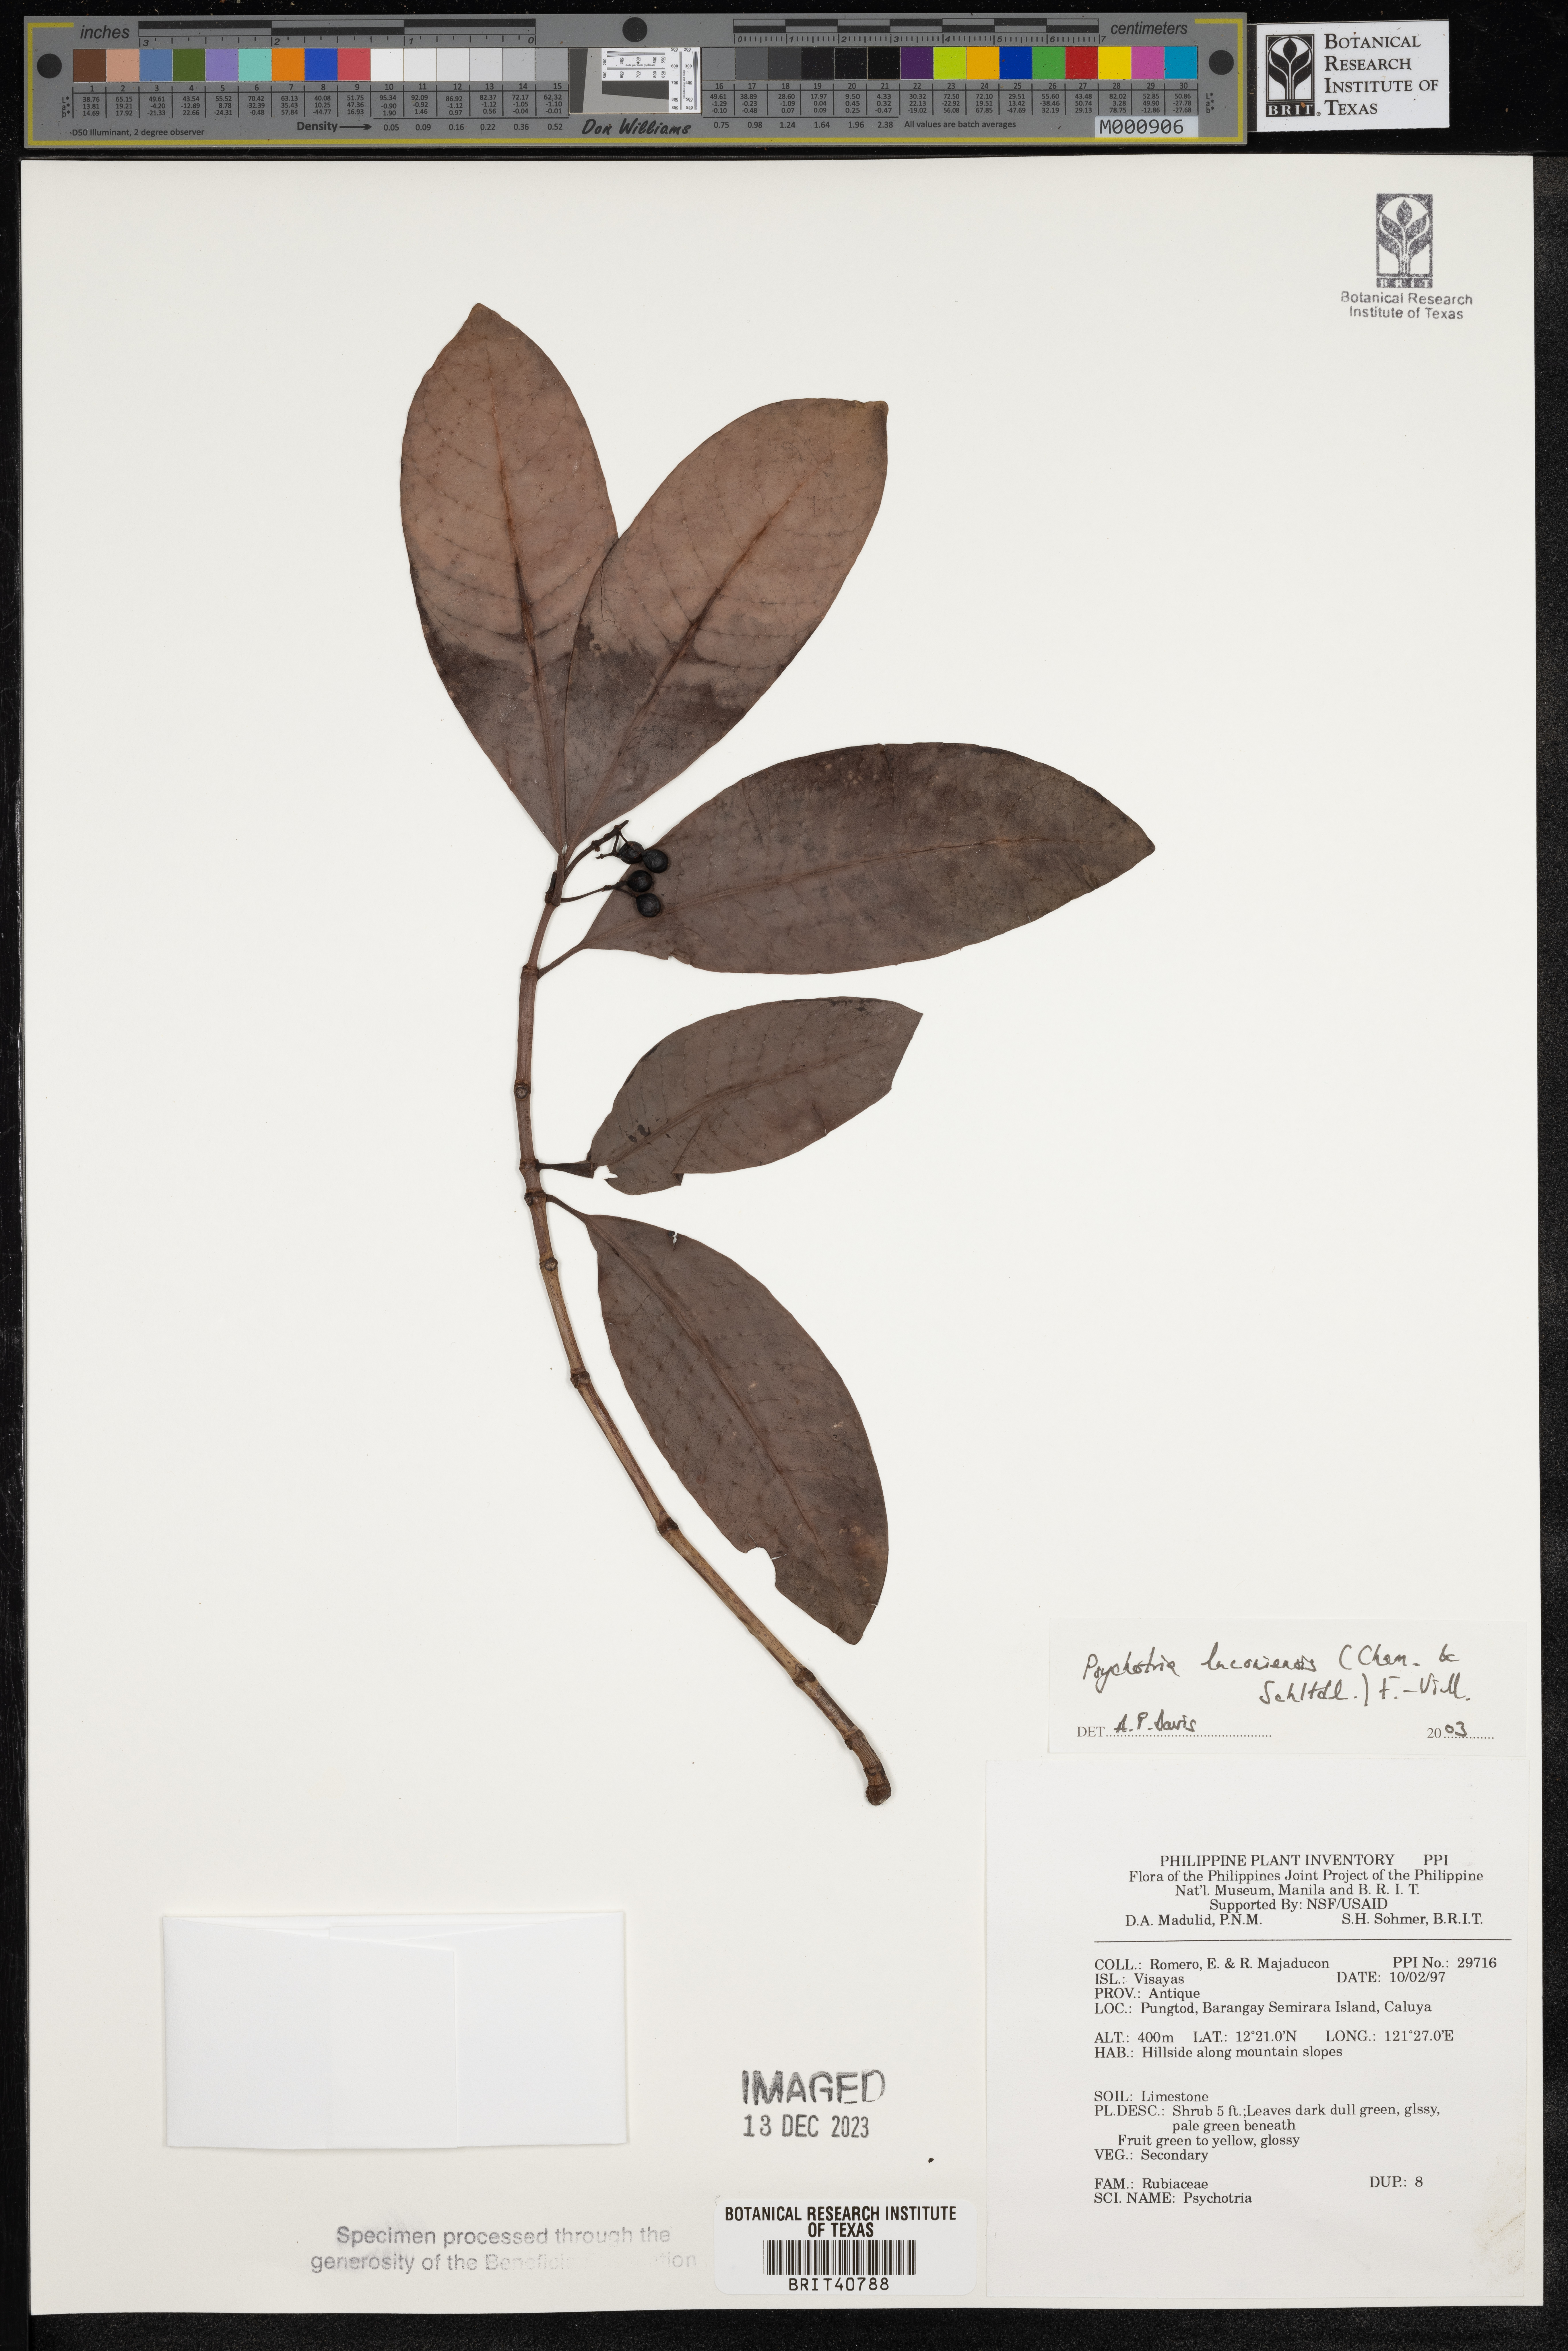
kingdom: Plantae
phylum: Tracheophyta
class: Magnoliopsida
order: Gentianales
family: Rubiaceae
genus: Psychotria
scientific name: Psychotria luzoniensis
